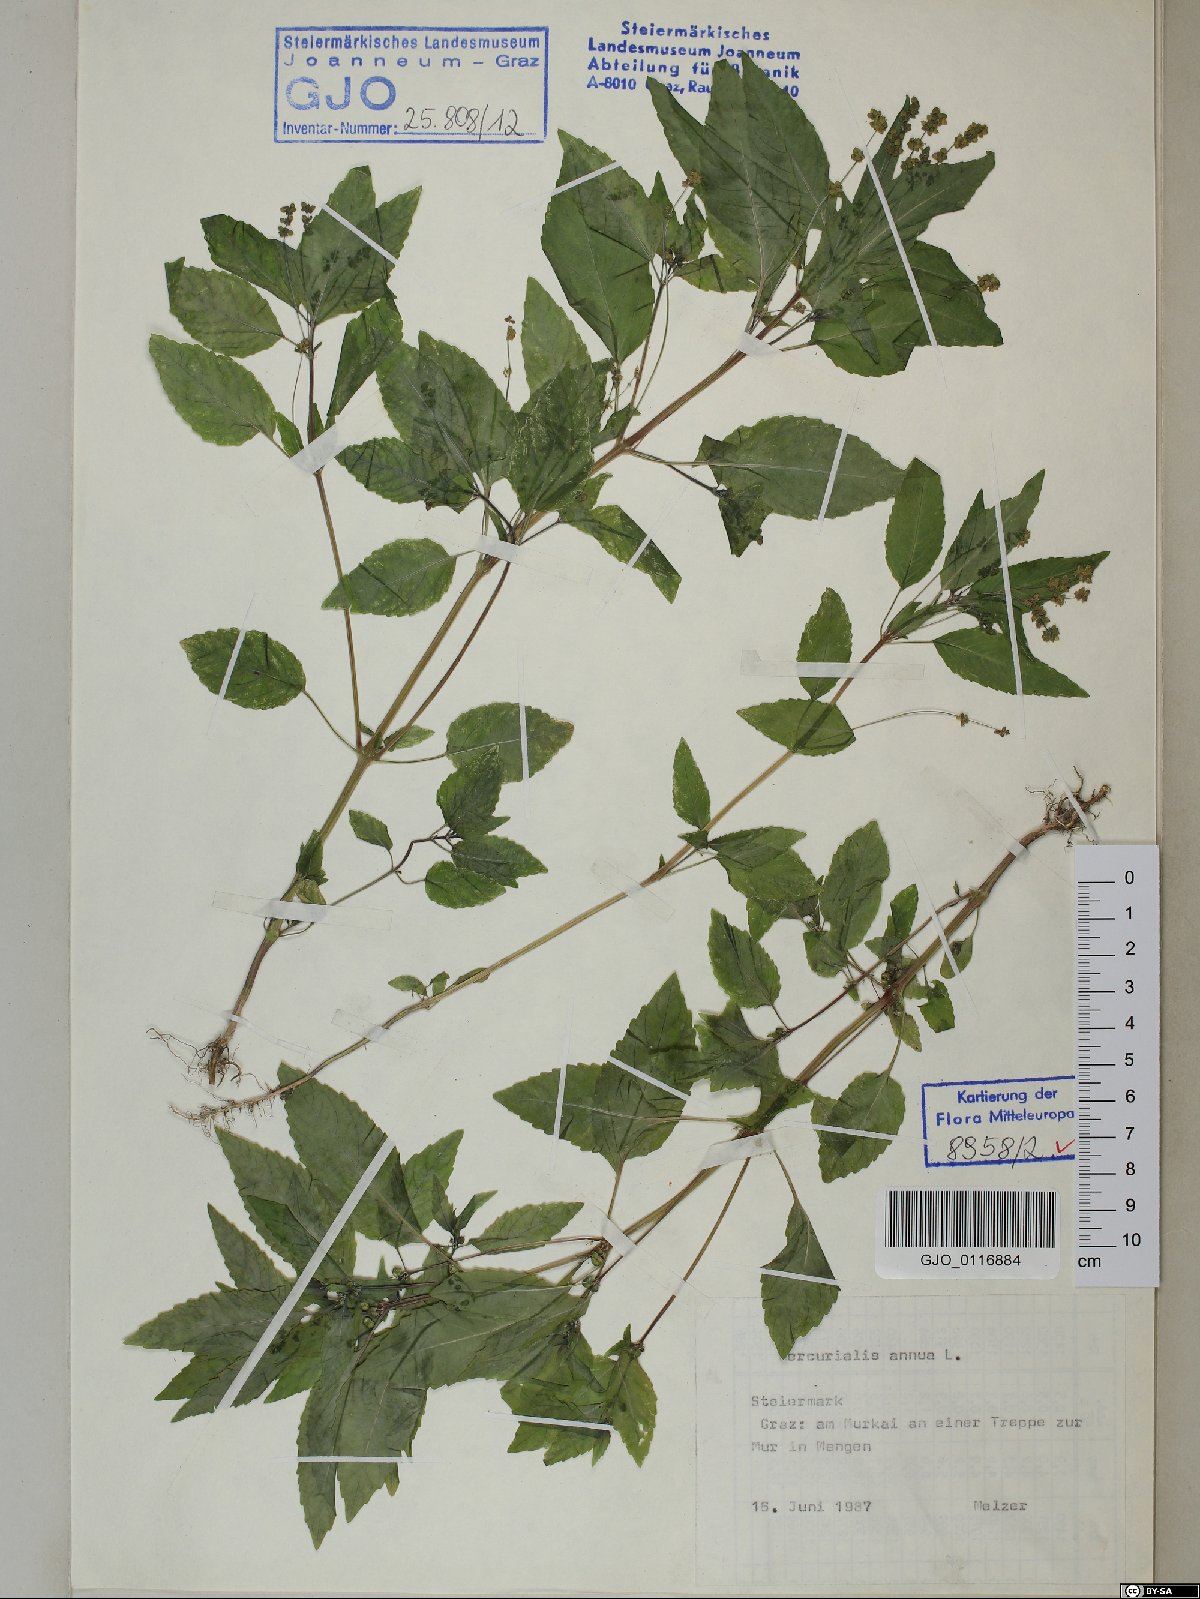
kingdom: Plantae
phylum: Tracheophyta
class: Magnoliopsida
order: Malpighiales
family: Euphorbiaceae
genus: Mercurialis
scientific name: Mercurialis annua
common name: Annual mercury
